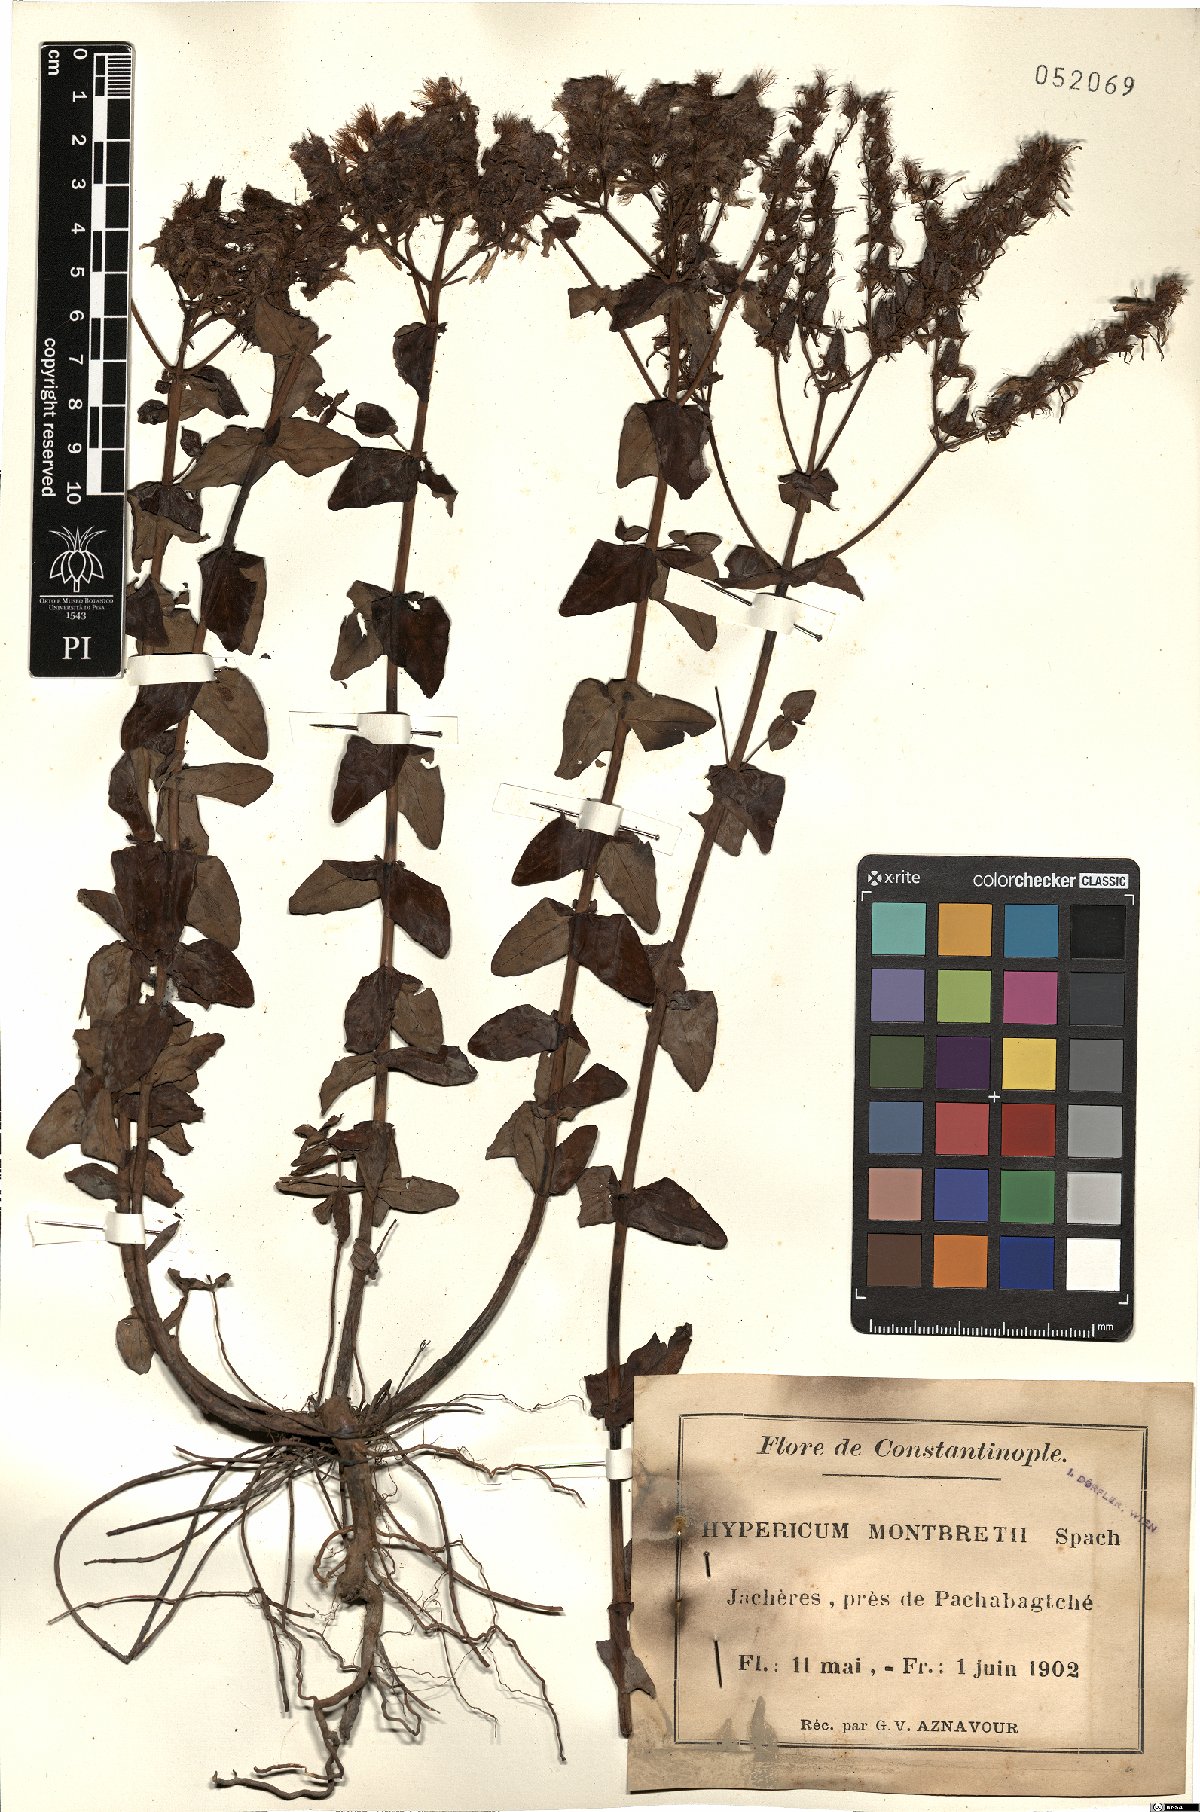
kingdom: Plantae
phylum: Tracheophyta
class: Magnoliopsida
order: Malpighiales
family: Hypericaceae
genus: Hypericum
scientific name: Hypericum montbretii
